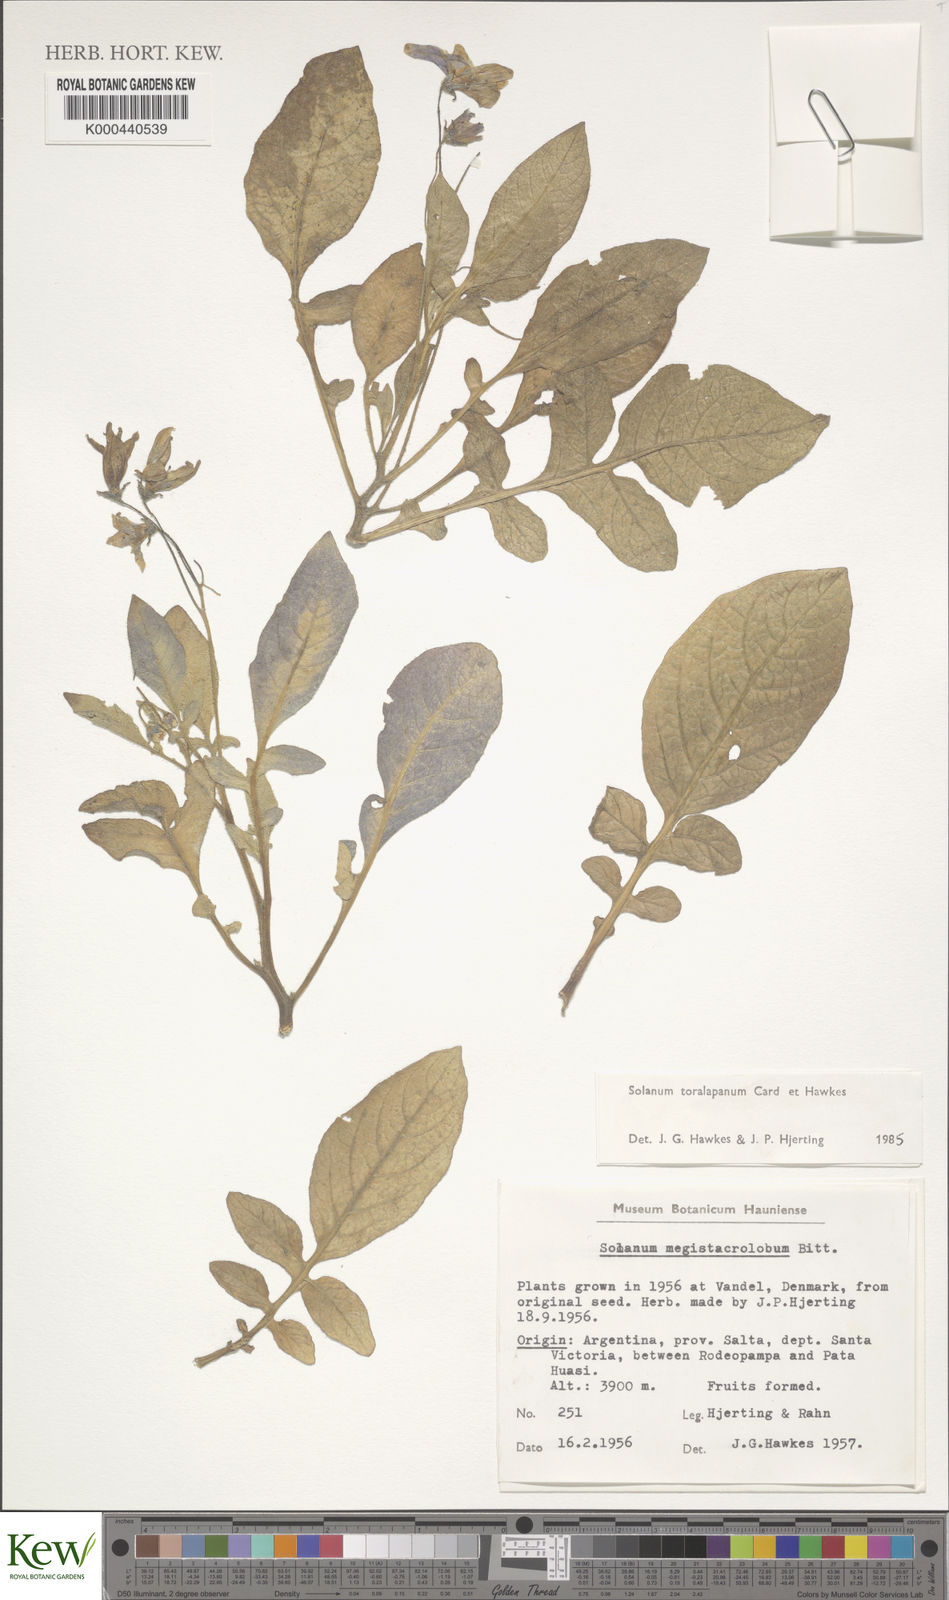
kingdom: Plantae
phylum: Tracheophyta
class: Magnoliopsida
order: Solanales
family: Solanaceae
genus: Solanum
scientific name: Solanum
